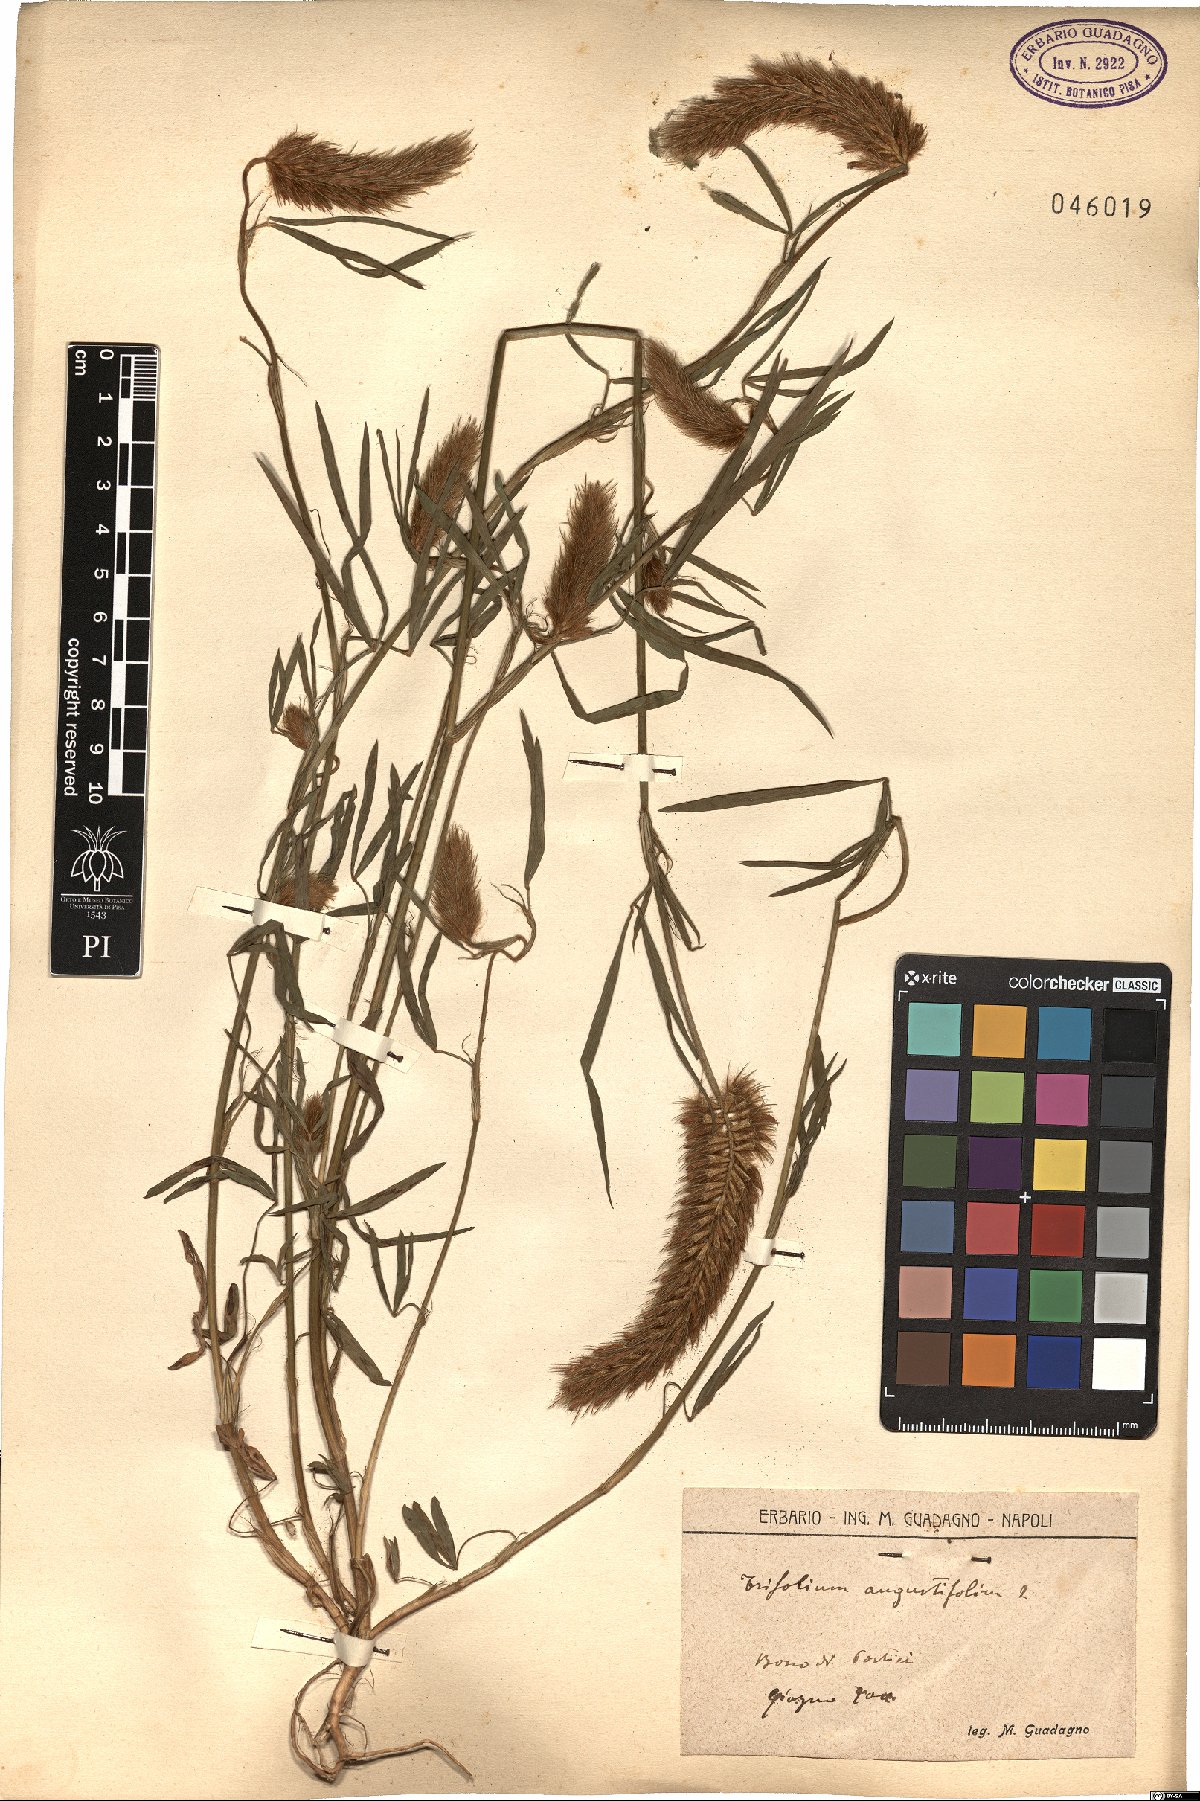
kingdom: Plantae
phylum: Tracheophyta
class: Magnoliopsida
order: Fabales
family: Fabaceae
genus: Trifolium
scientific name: Trifolium angustifolium
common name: Narrow clover
